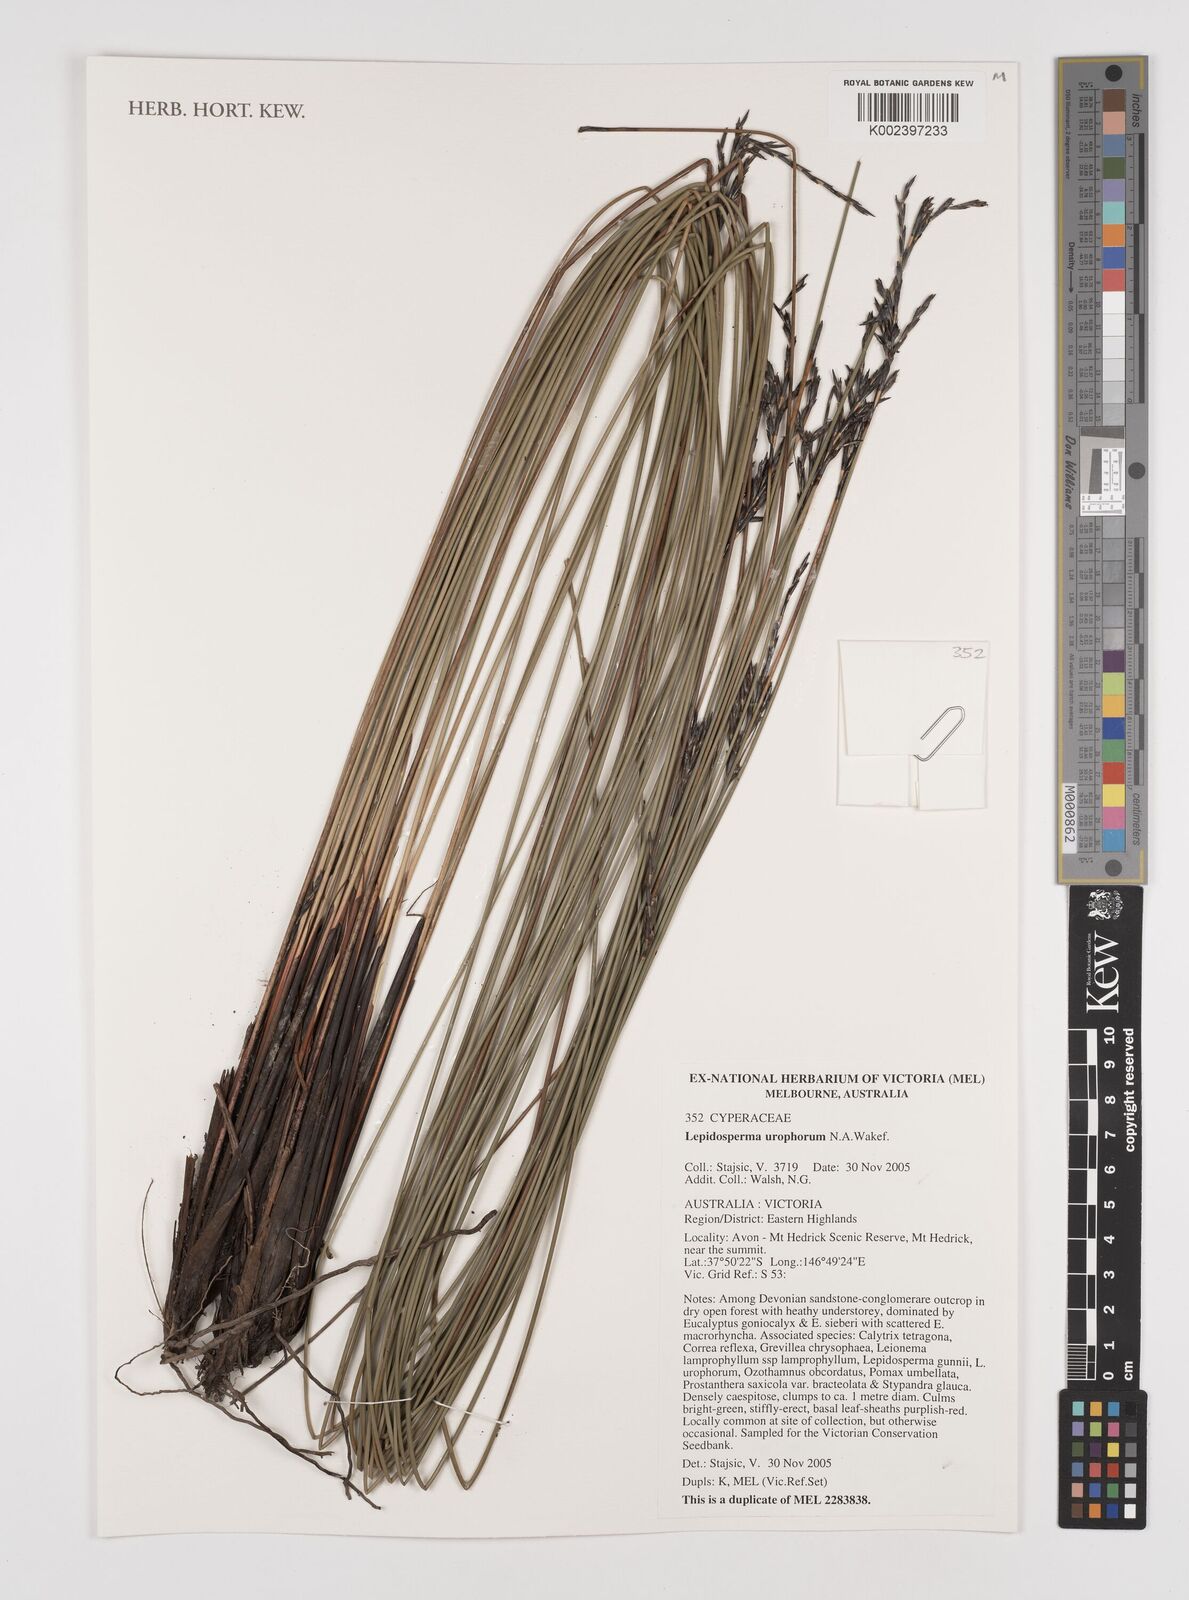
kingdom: Plantae
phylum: Tracheophyta
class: Liliopsida
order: Poales
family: Cyperaceae
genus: Lepidosperma
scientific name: Lepidosperma urophorum
